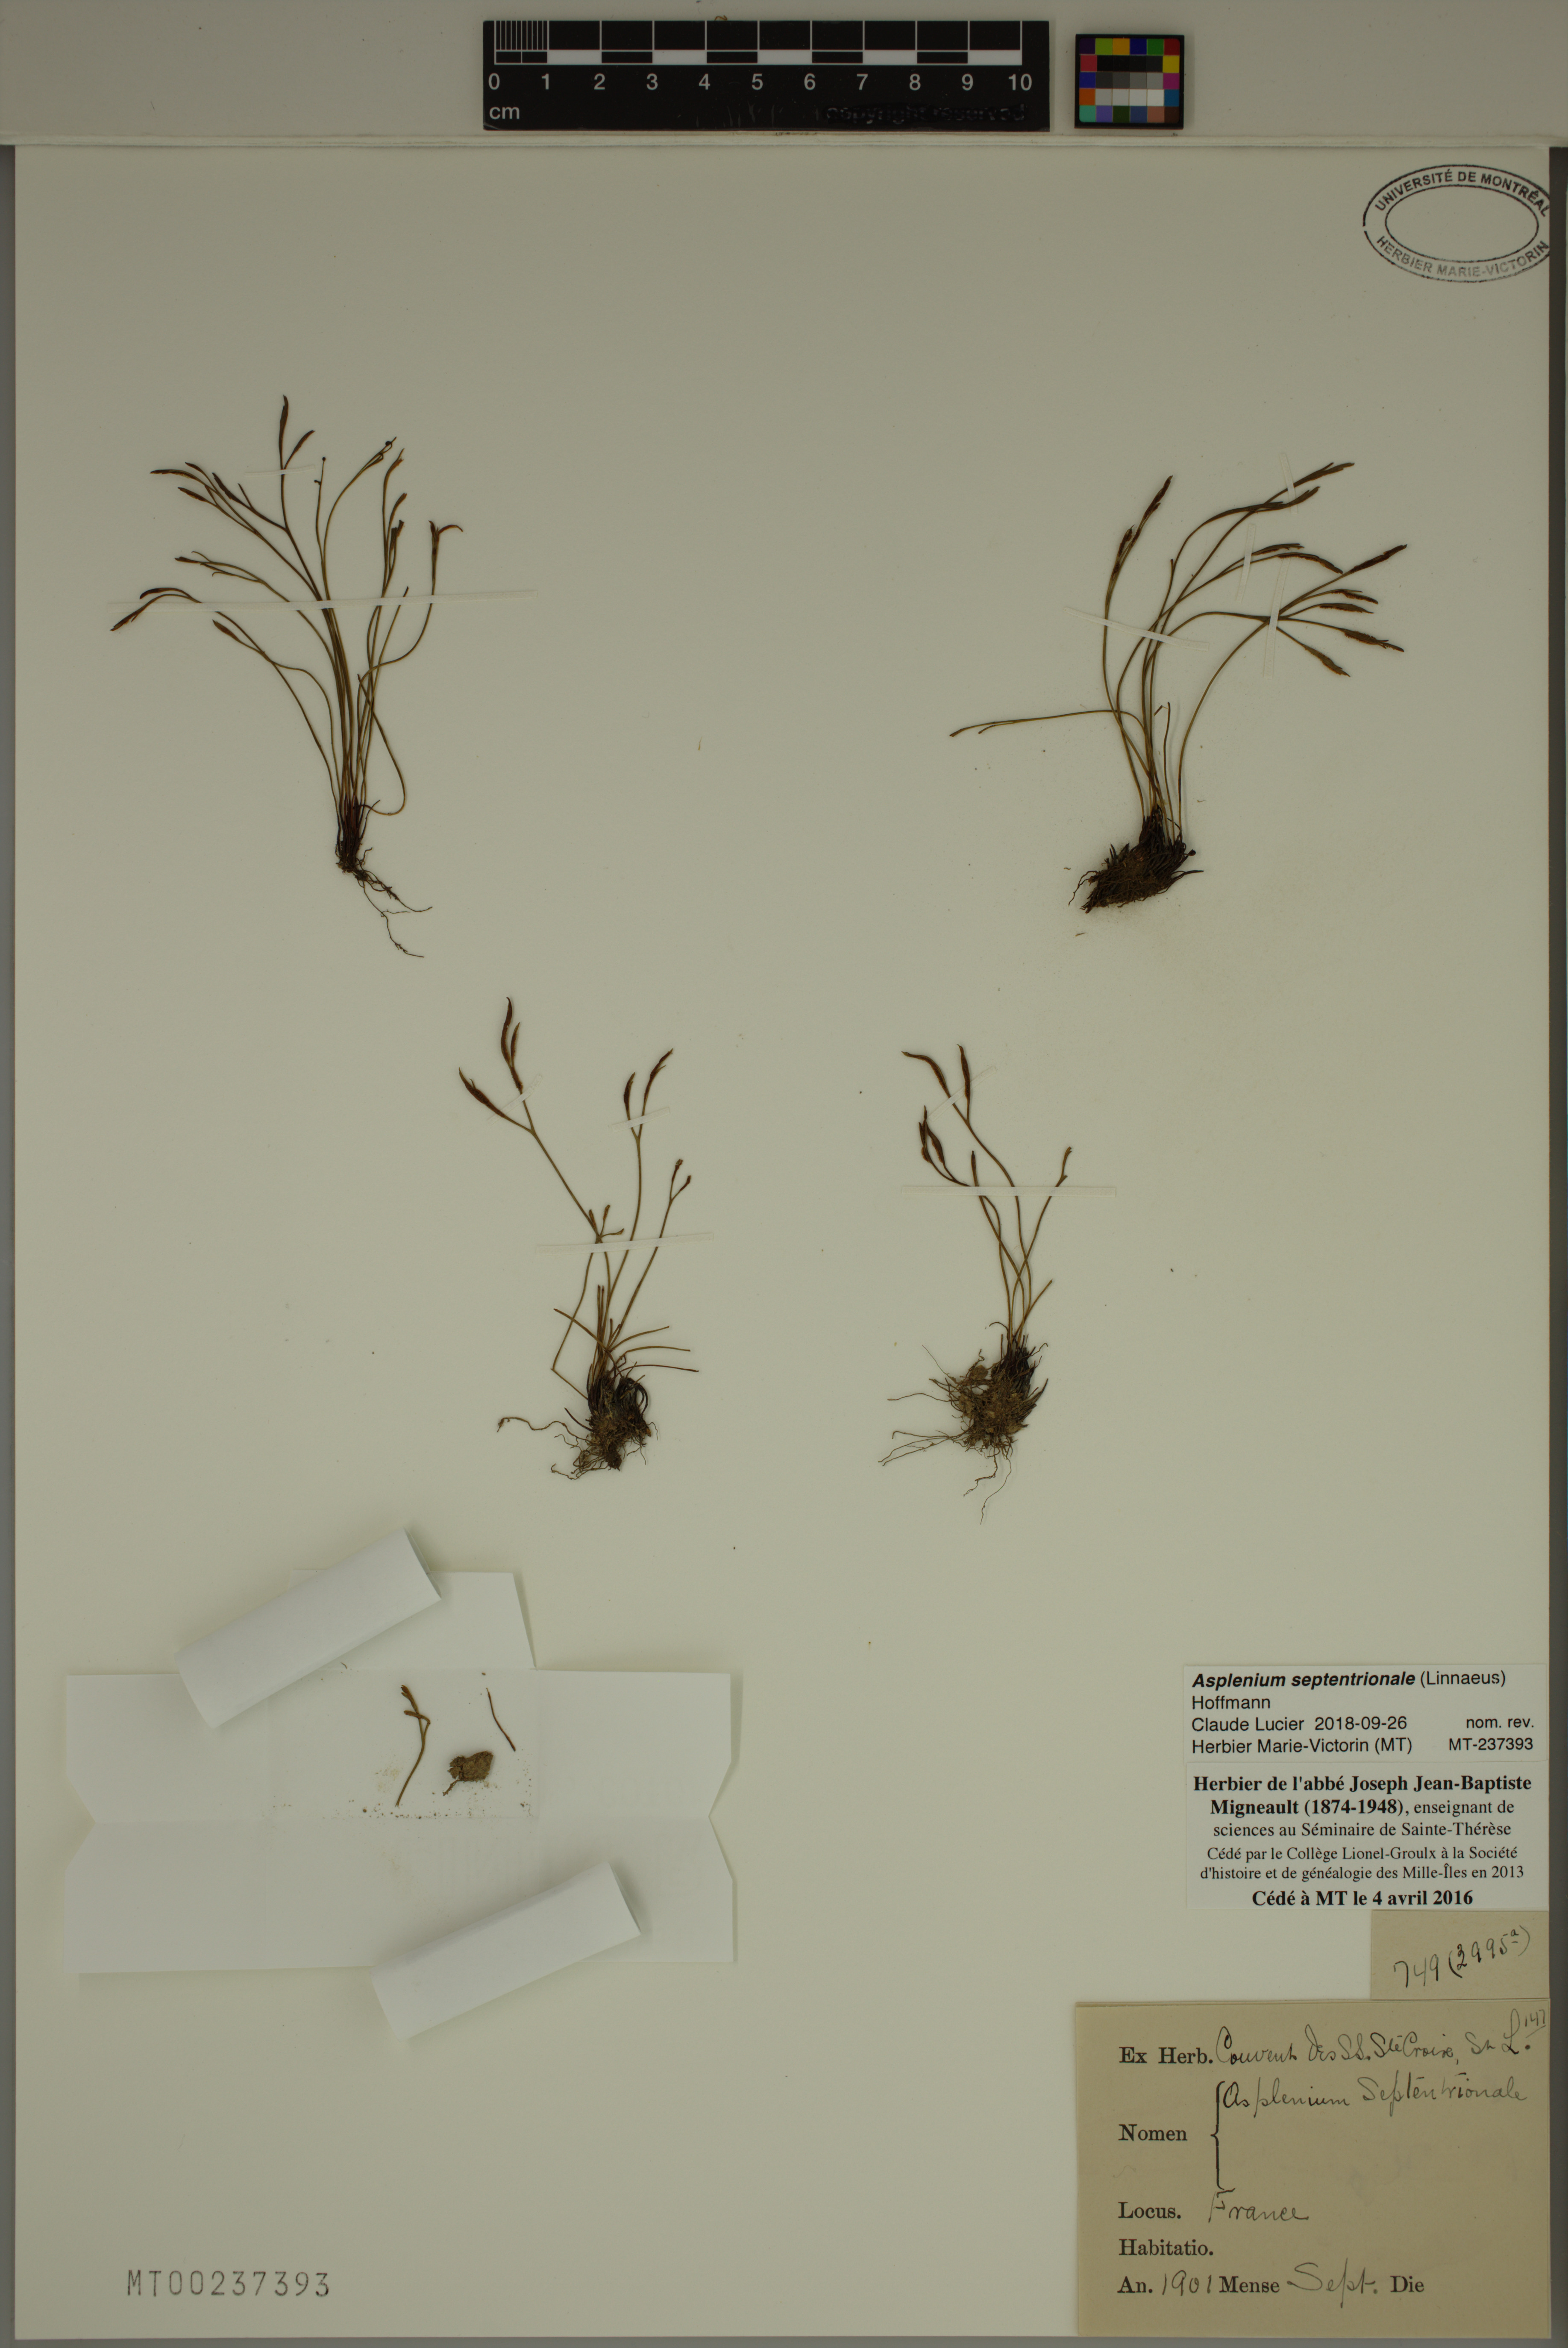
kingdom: Plantae
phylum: Tracheophyta
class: Polypodiopsida
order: Polypodiales
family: Aspleniaceae
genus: Asplenium
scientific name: Asplenium septentrionale
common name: Forked spleenwort
